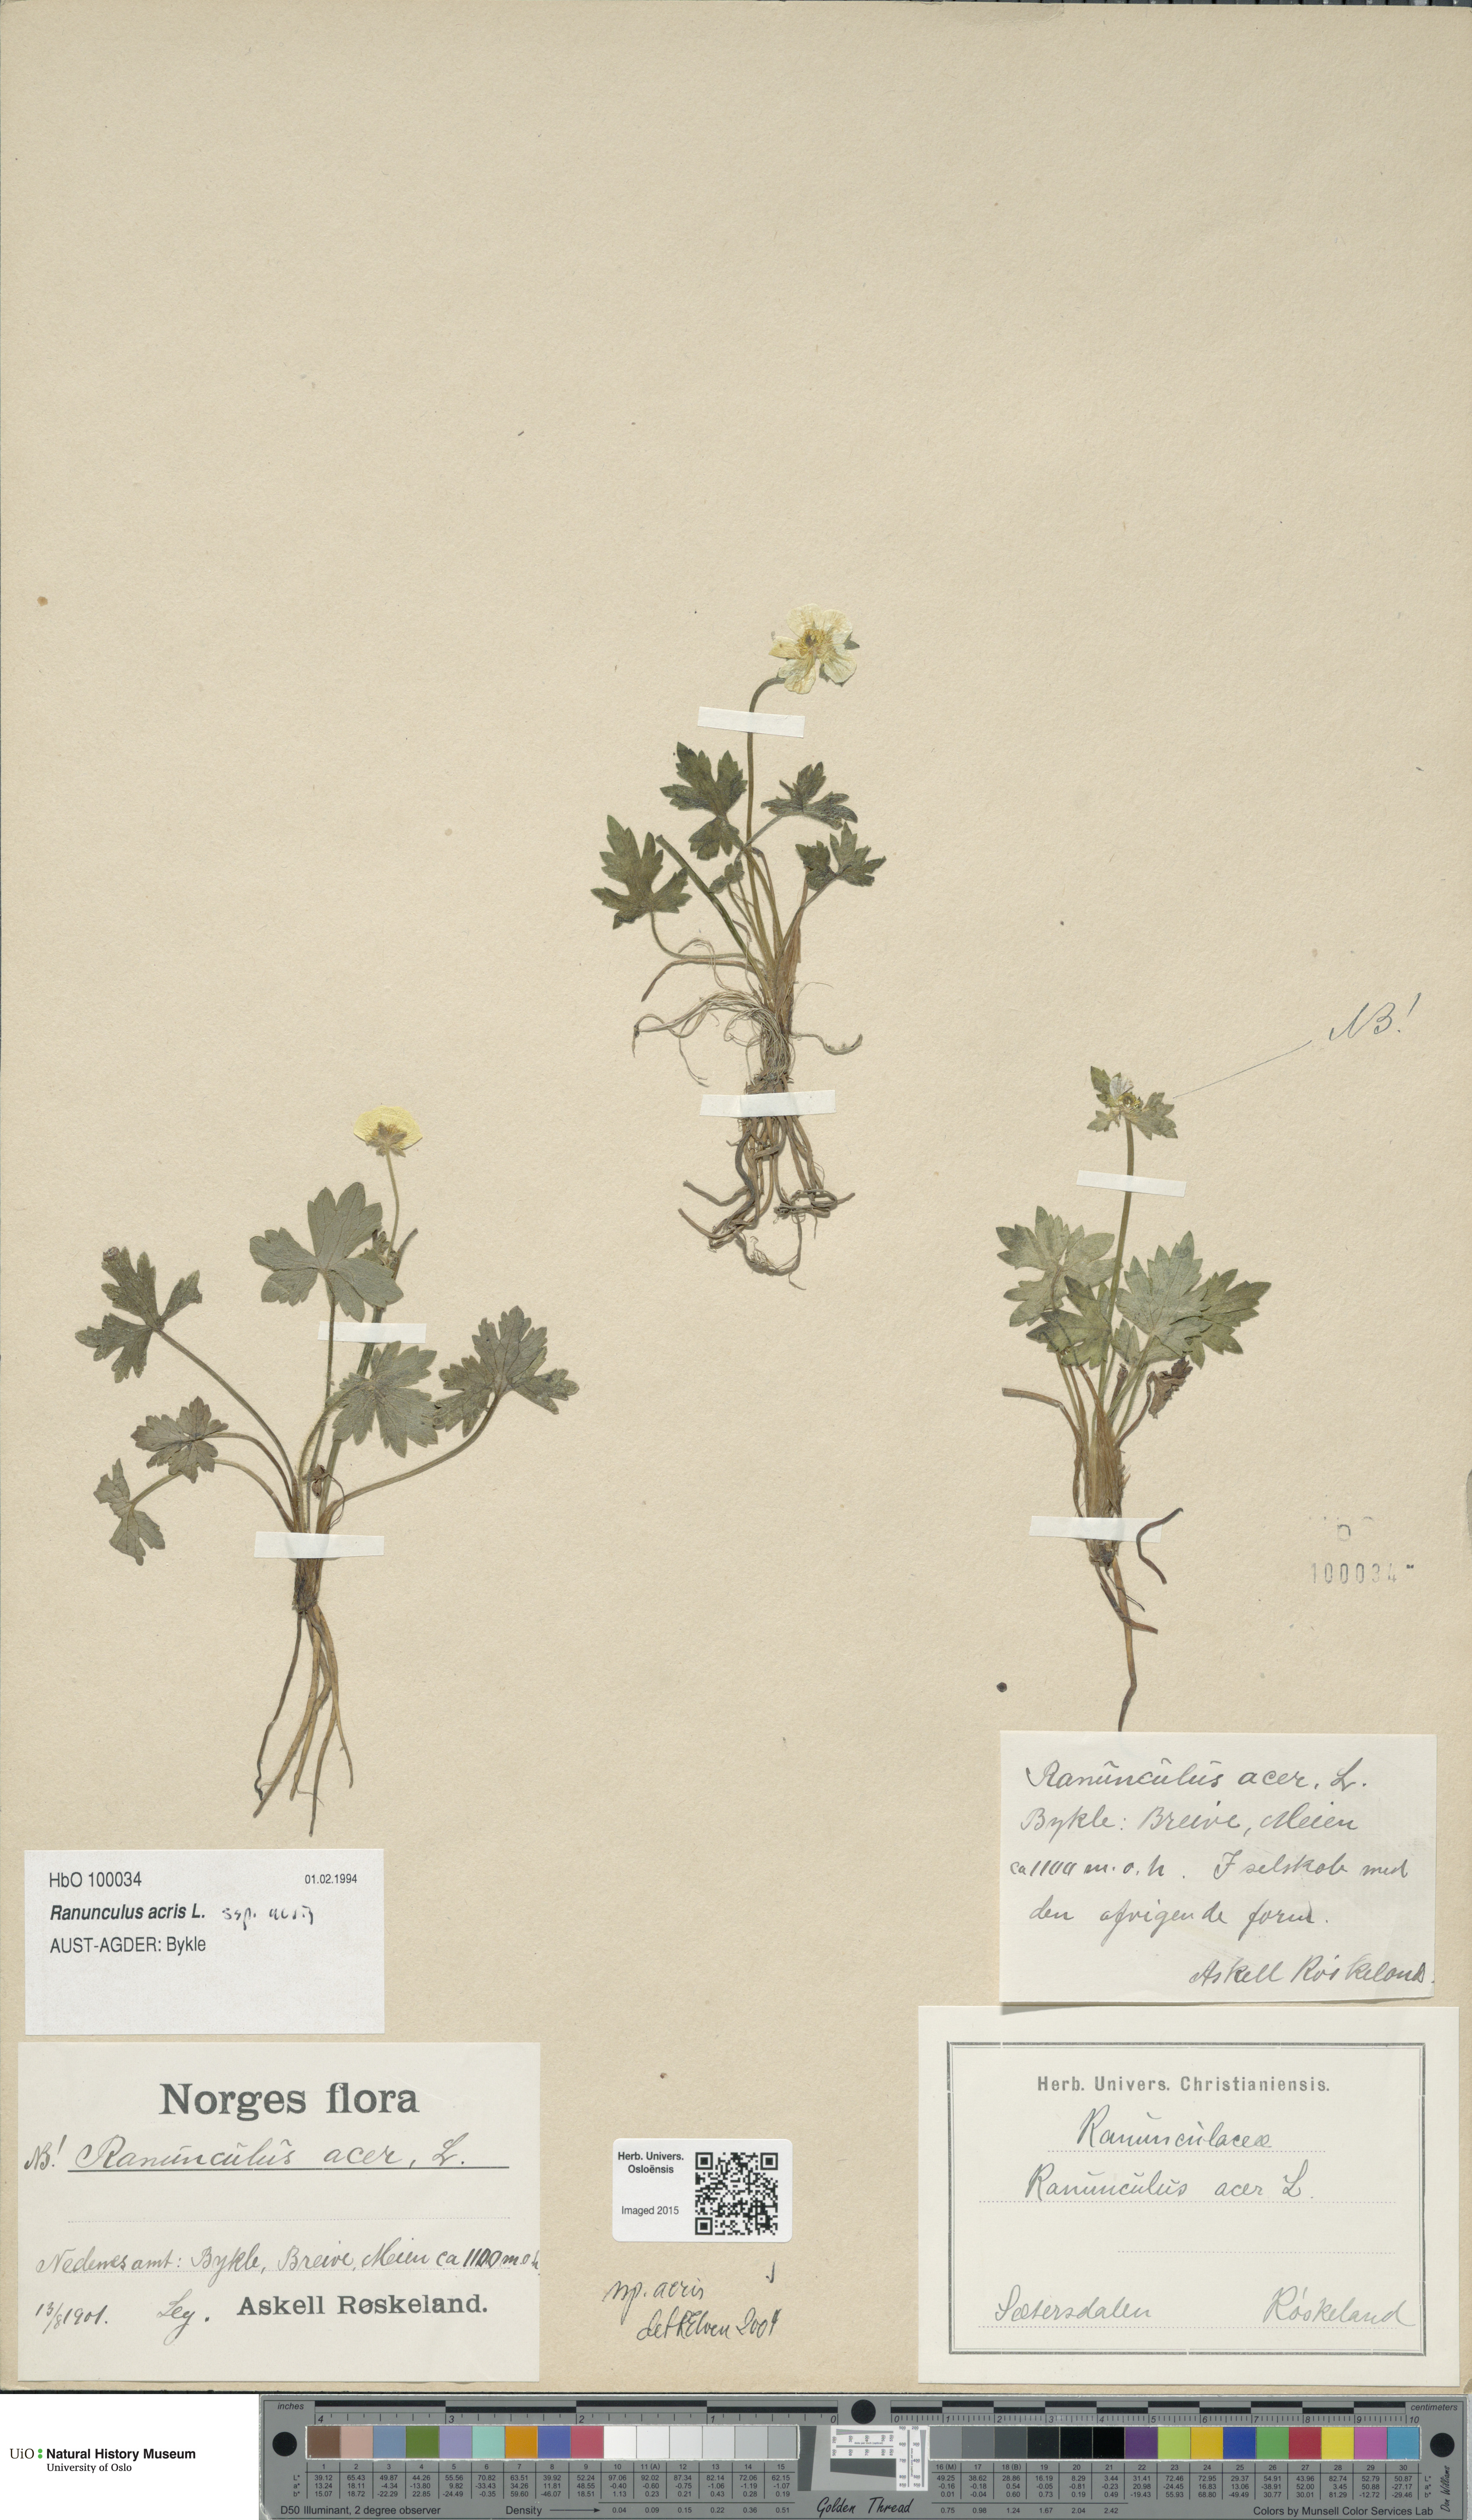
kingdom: Plantae
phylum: Tracheophyta
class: Magnoliopsida
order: Ranunculales
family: Ranunculaceae
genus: Ranunculus
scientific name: Ranunculus acris
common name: Meadow buttercup
